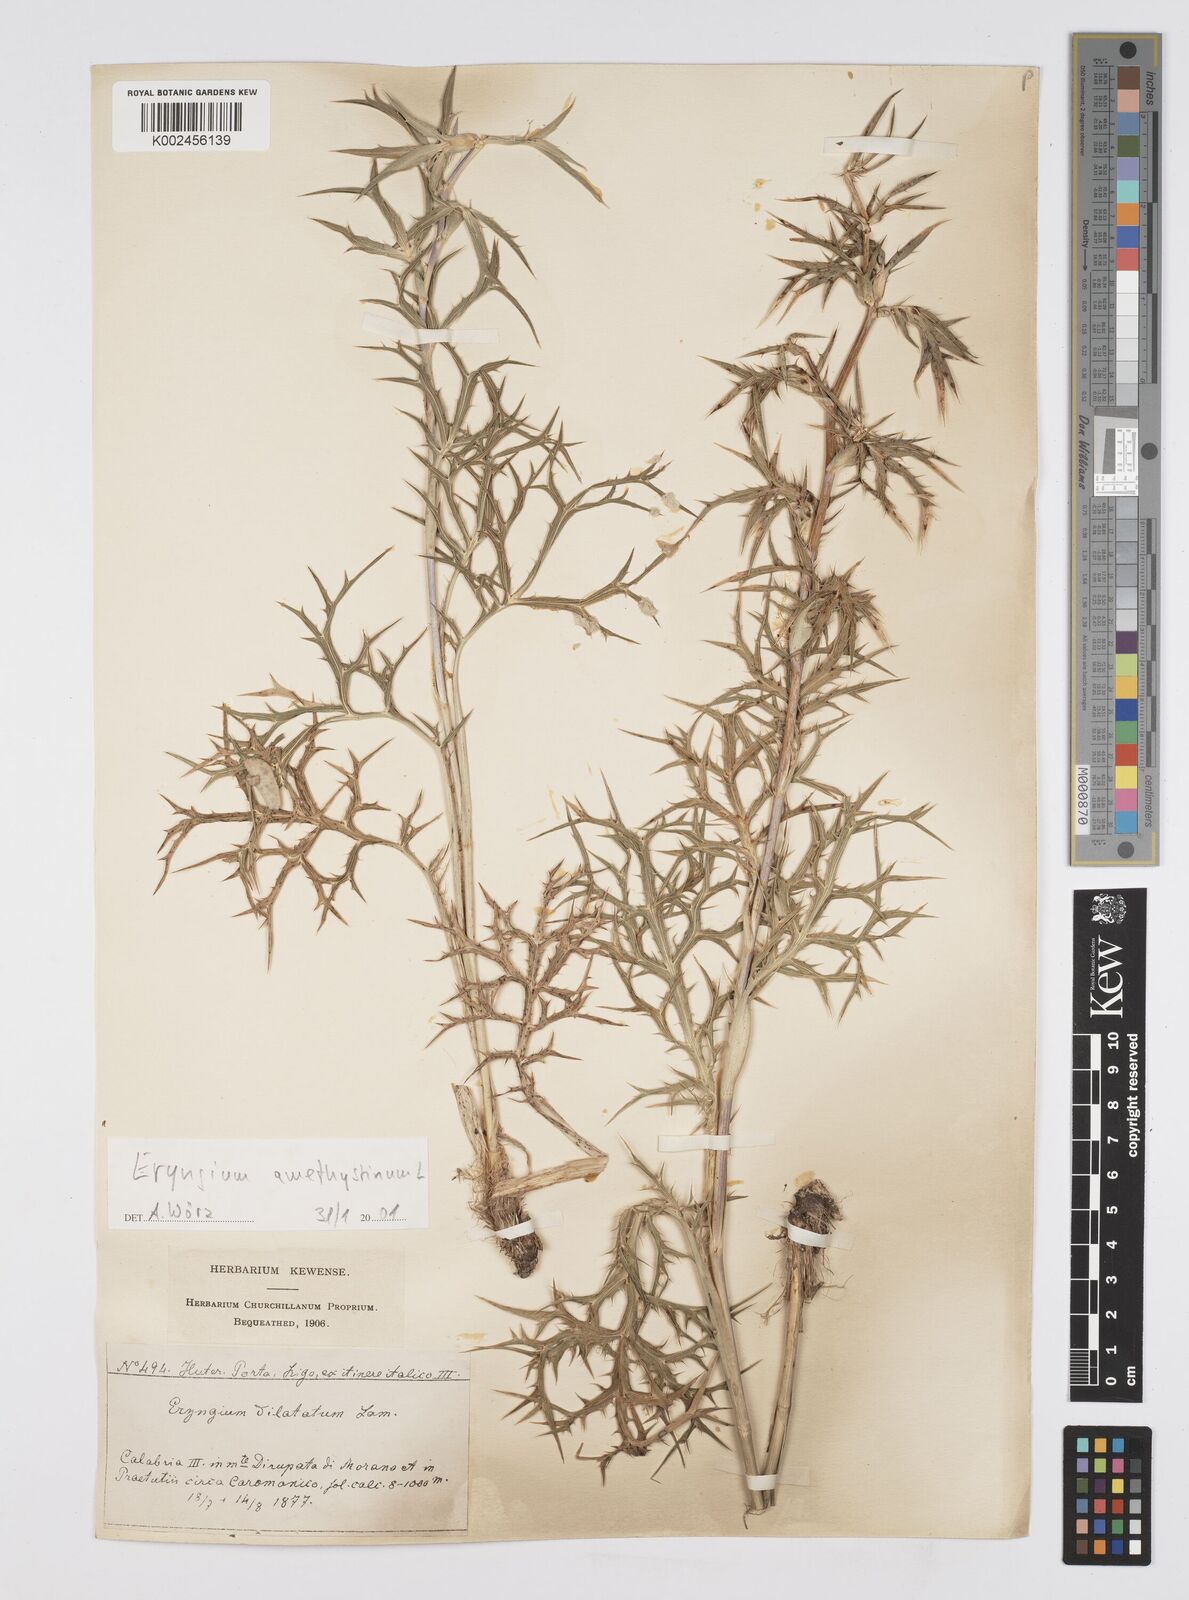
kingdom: Plantae
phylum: Tracheophyta
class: Magnoliopsida
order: Apiales
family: Apiaceae
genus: Eryngium
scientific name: Eryngium dilatatum
